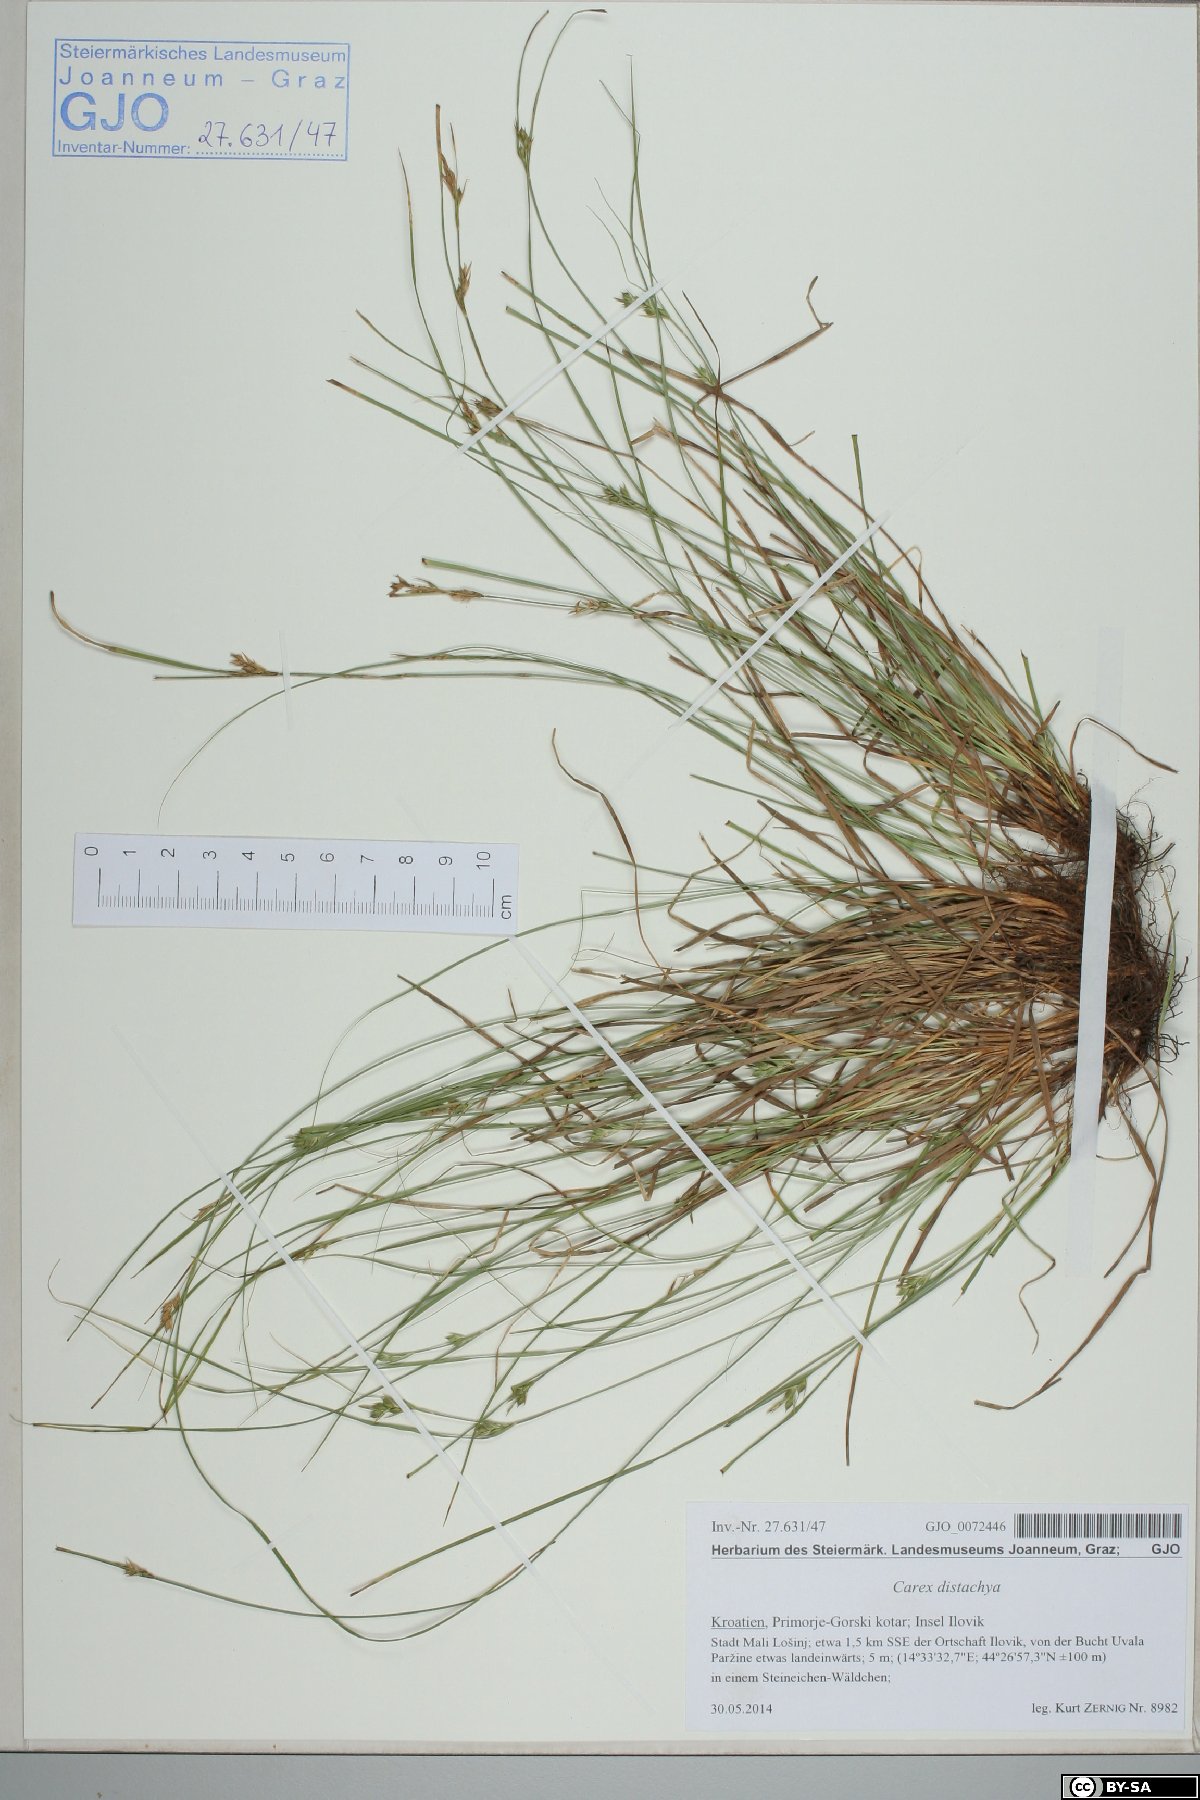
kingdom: Plantae
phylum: Tracheophyta
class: Liliopsida
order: Poales
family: Cyperaceae
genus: Carex
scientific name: Carex distachya
